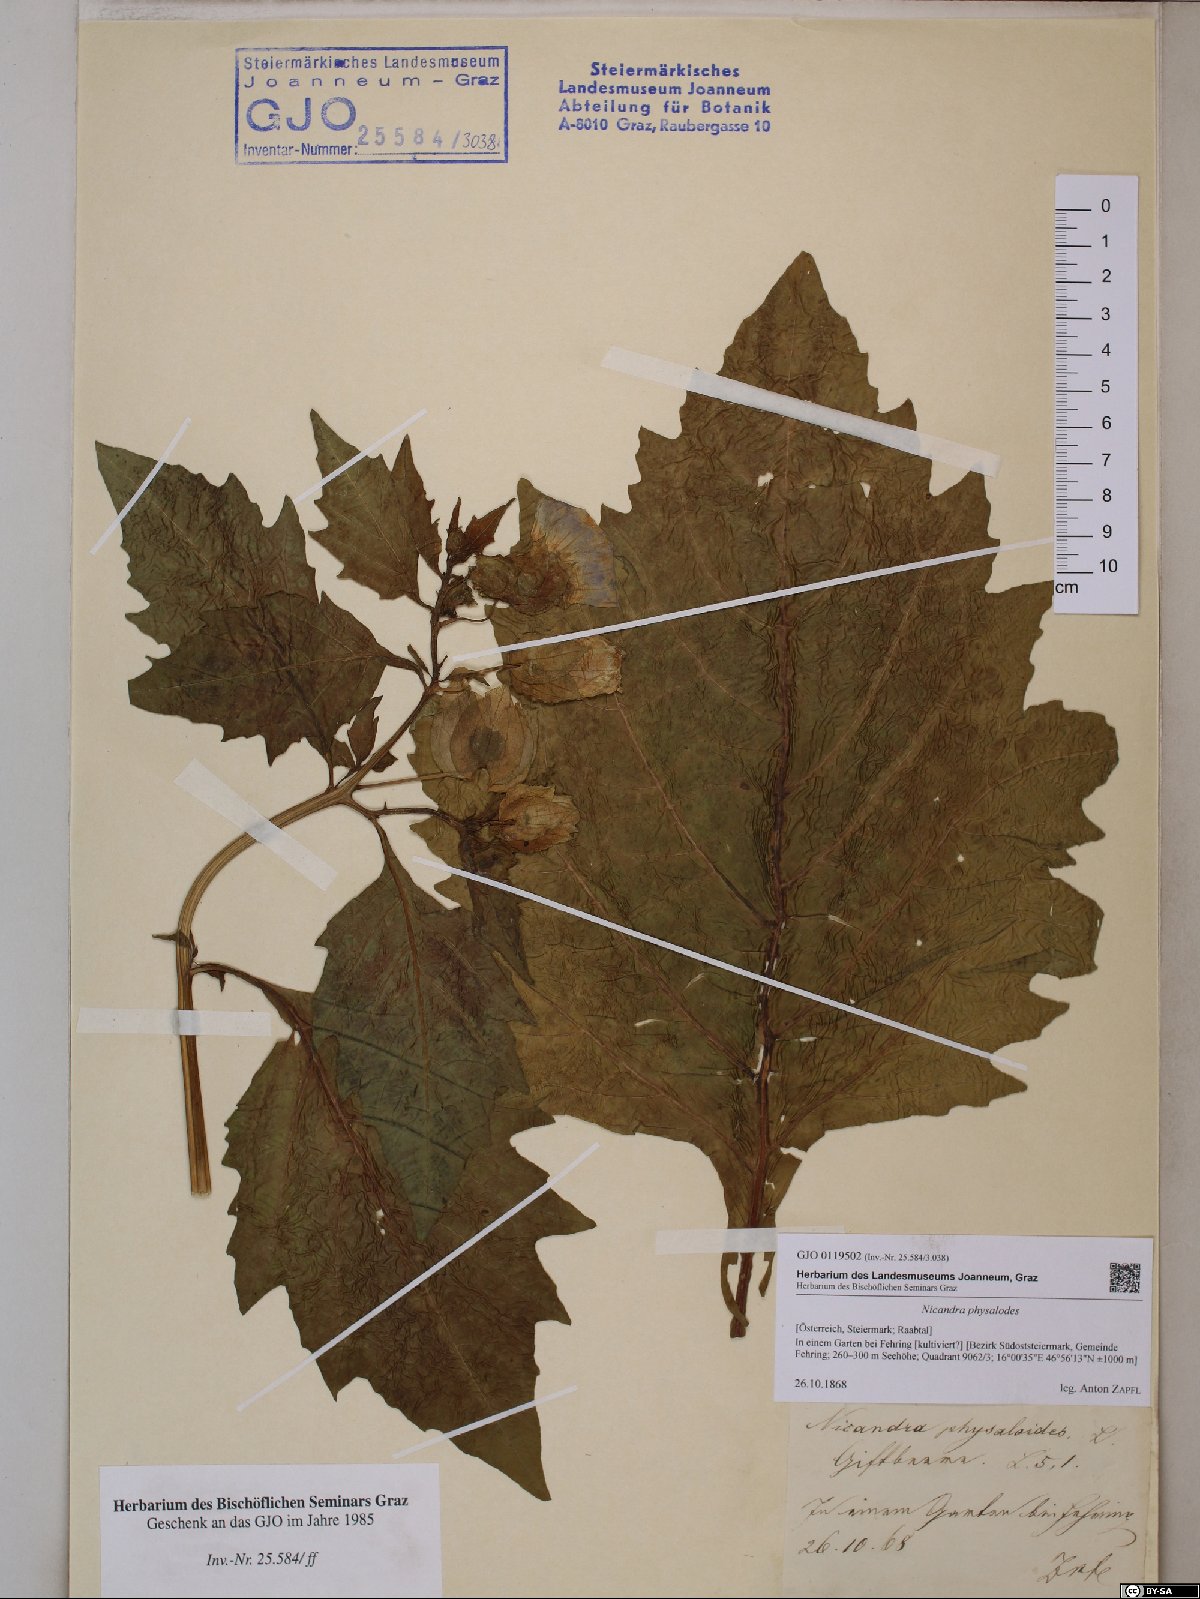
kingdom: Plantae
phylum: Tracheophyta
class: Magnoliopsida
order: Solanales
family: Solanaceae
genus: Nicandra
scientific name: Nicandra physalodes
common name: Apple-of-peru
